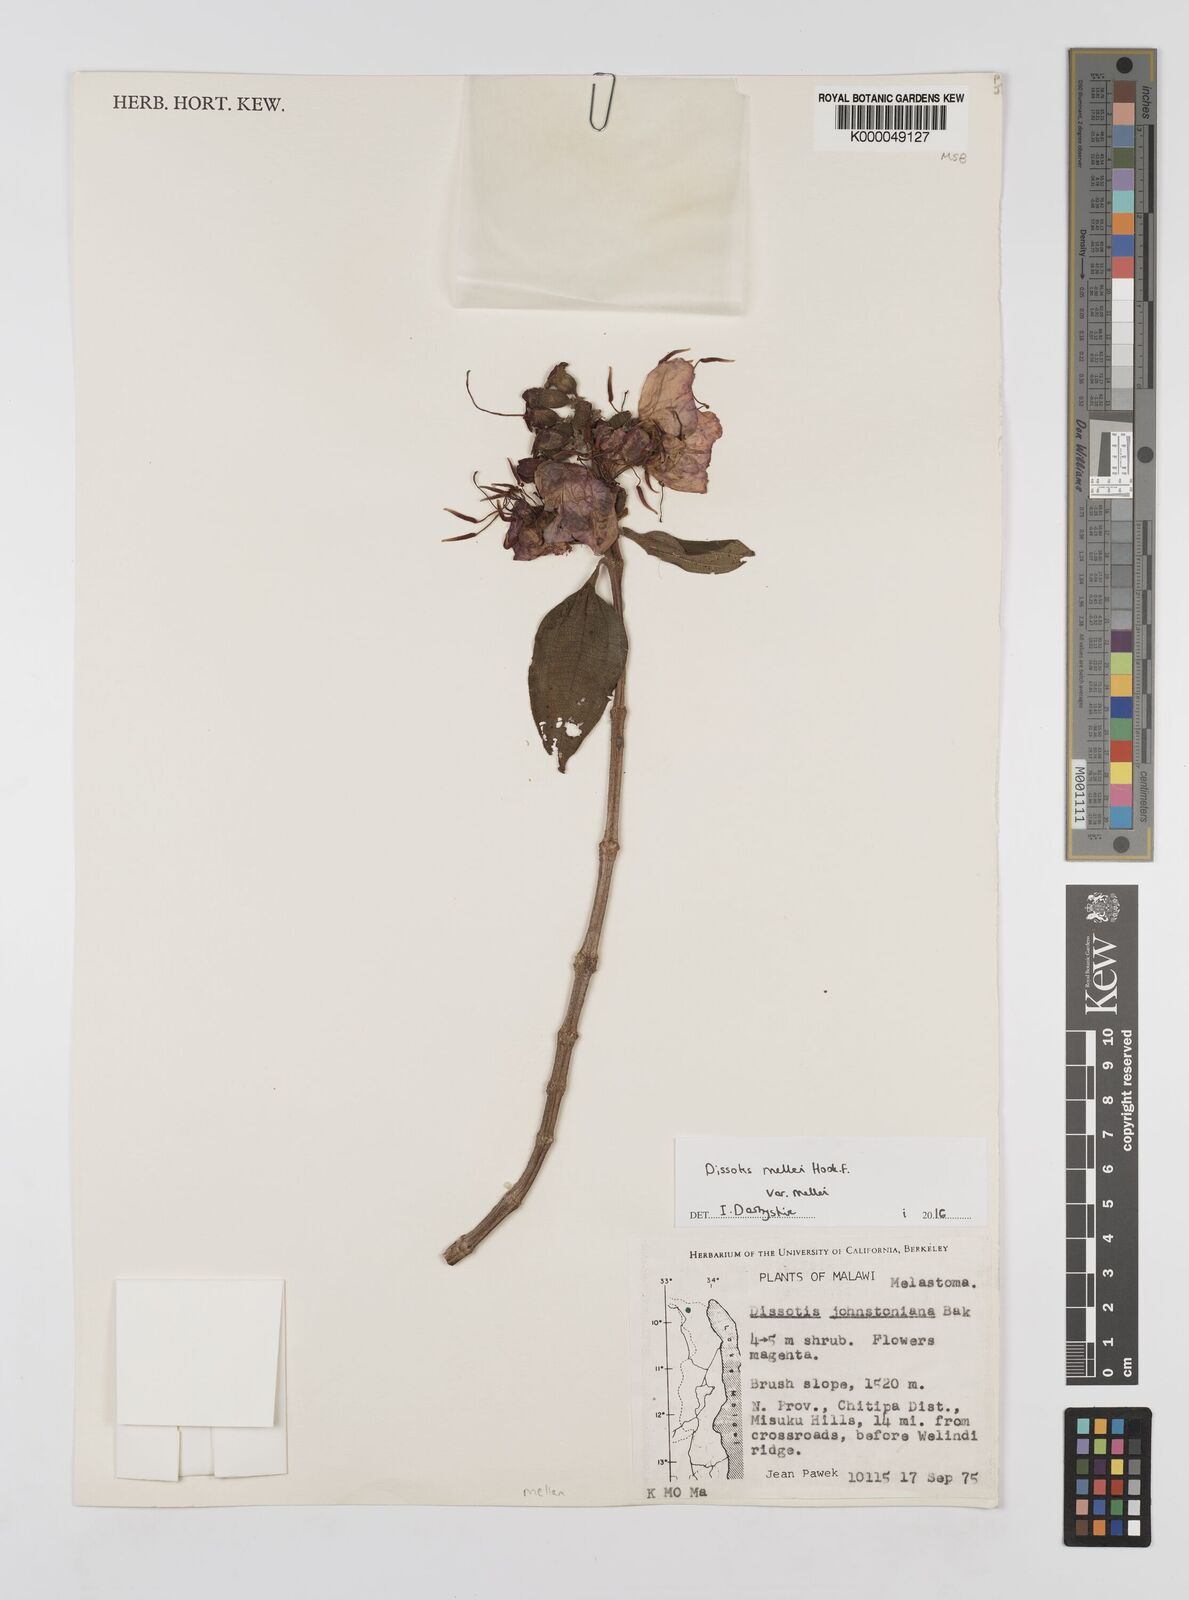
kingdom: Plantae
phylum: Tracheophyta
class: Magnoliopsida
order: Myrtales
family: Melastomataceae
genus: Dissotidendron
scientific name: Dissotidendron johnstonianum
